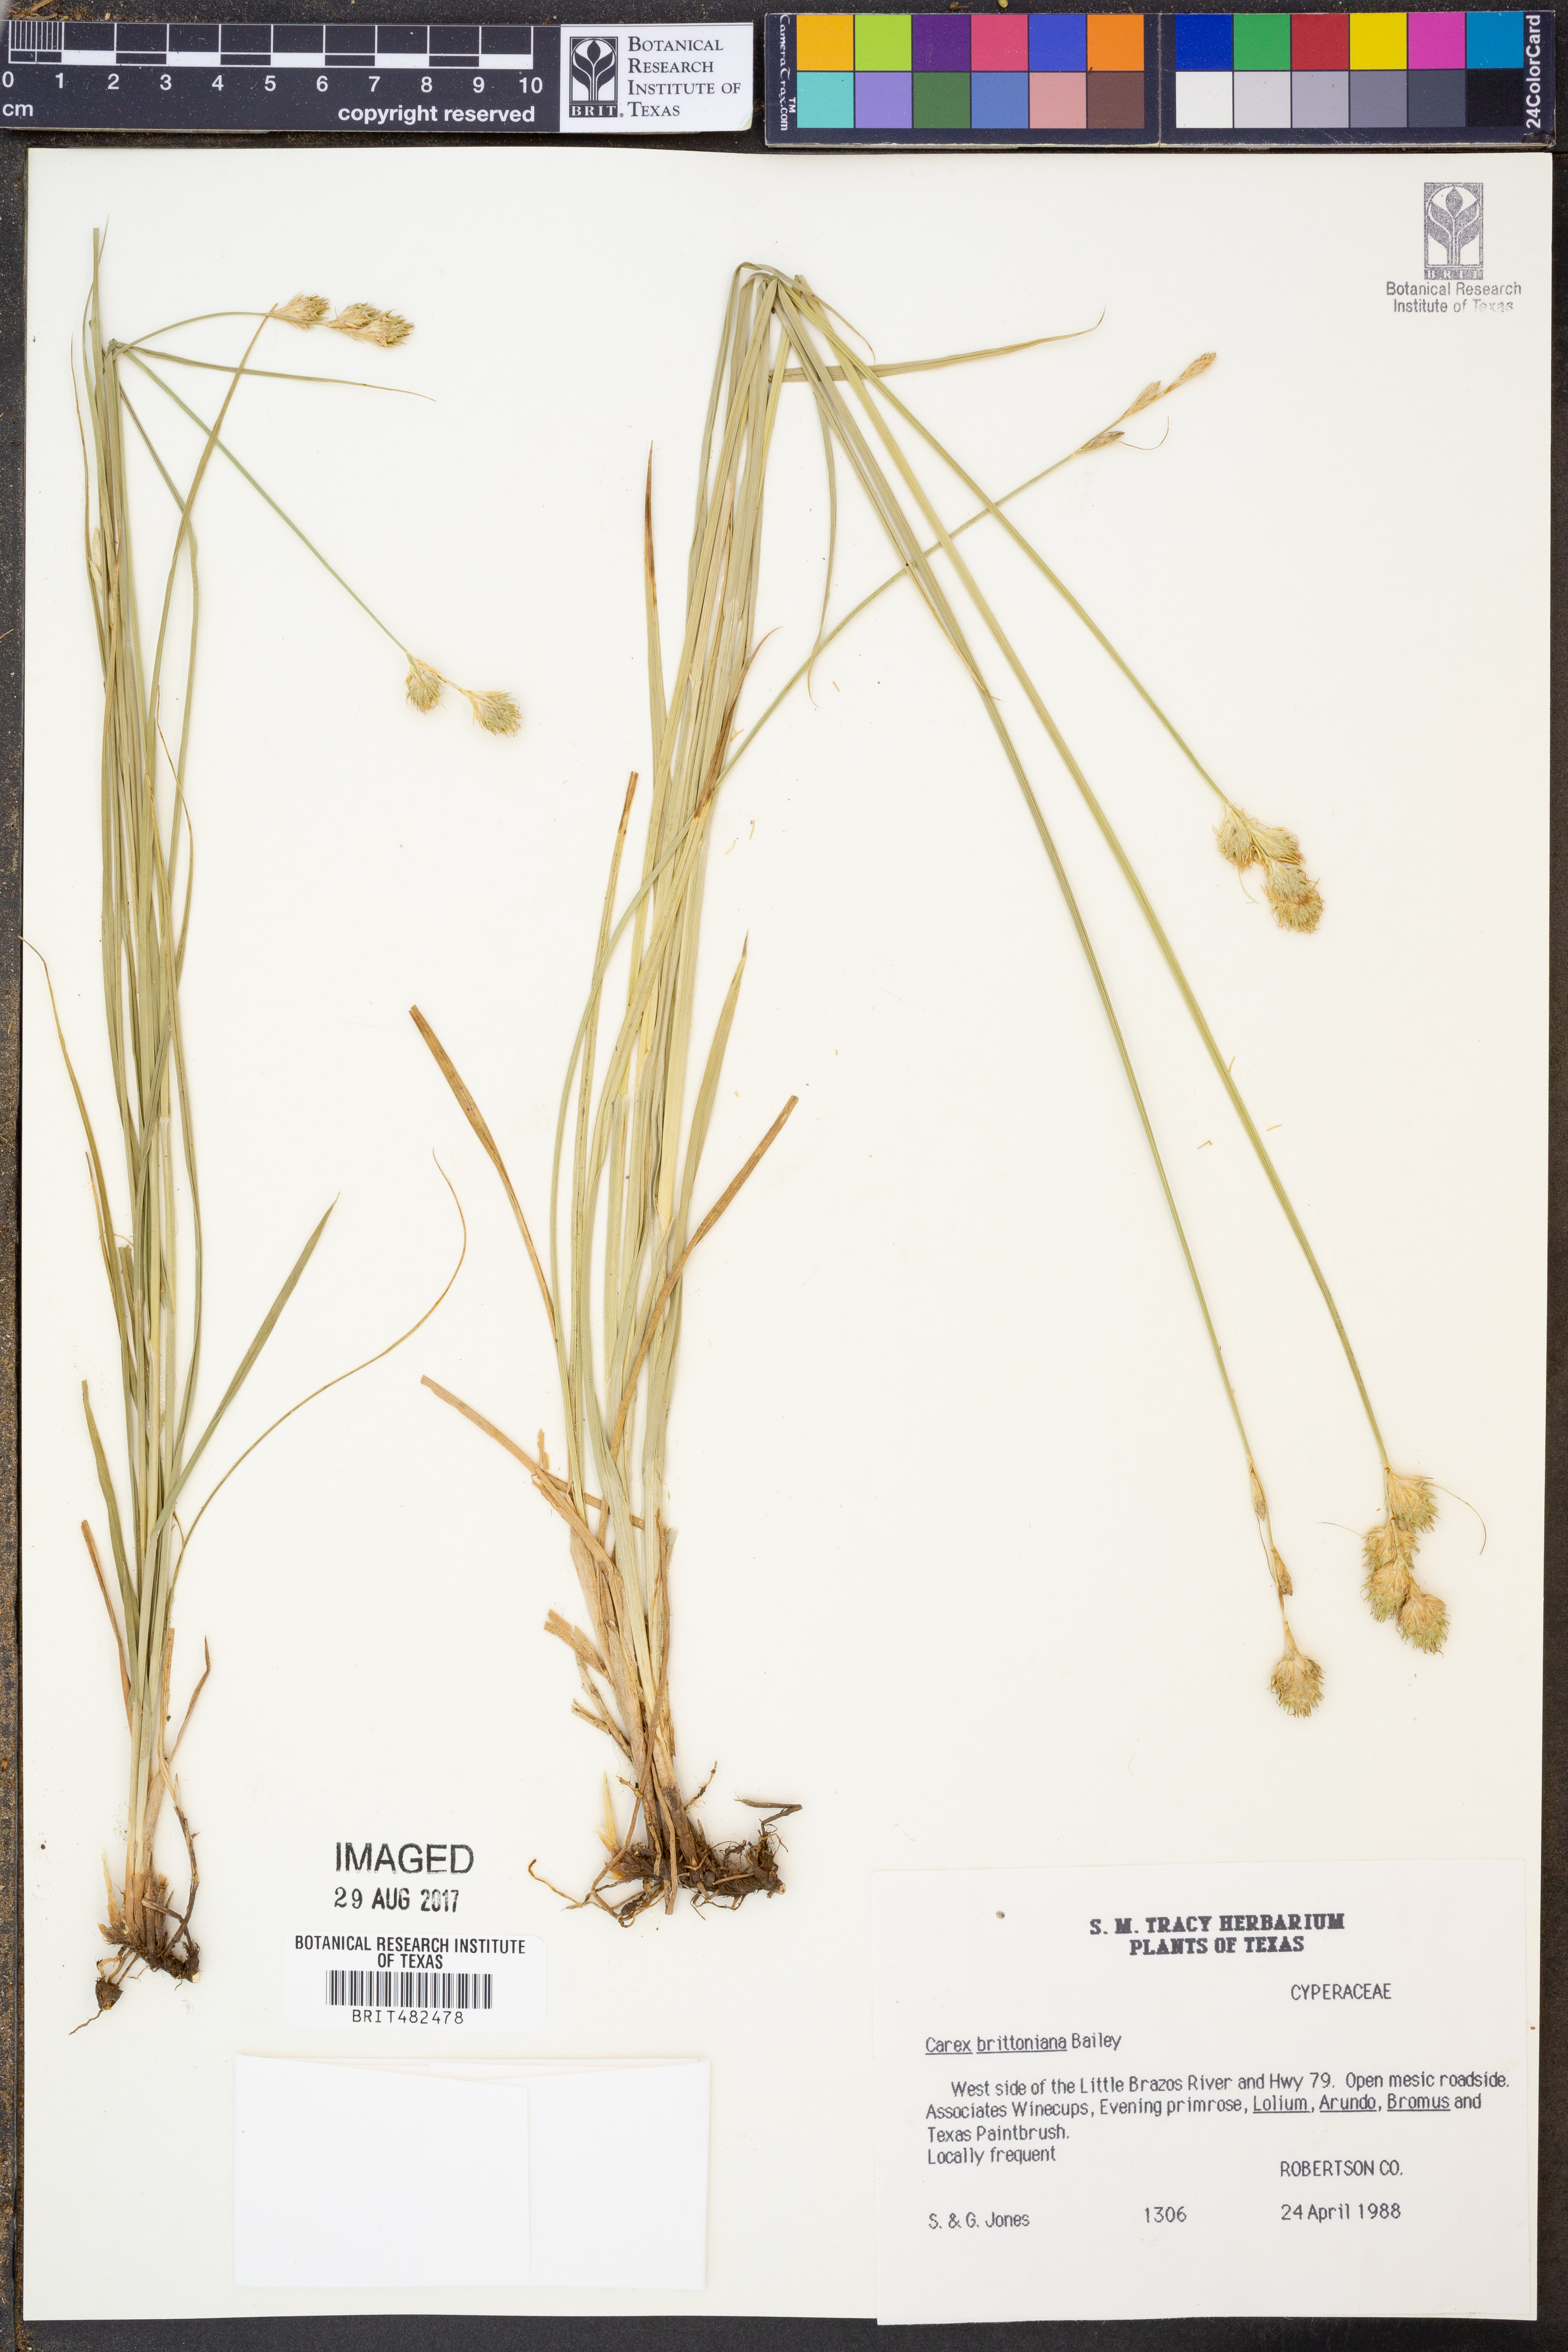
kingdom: Plantae
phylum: Tracheophyta
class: Liliopsida
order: Poales
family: Cyperaceae
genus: Carex
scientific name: Carex tetrastachya
